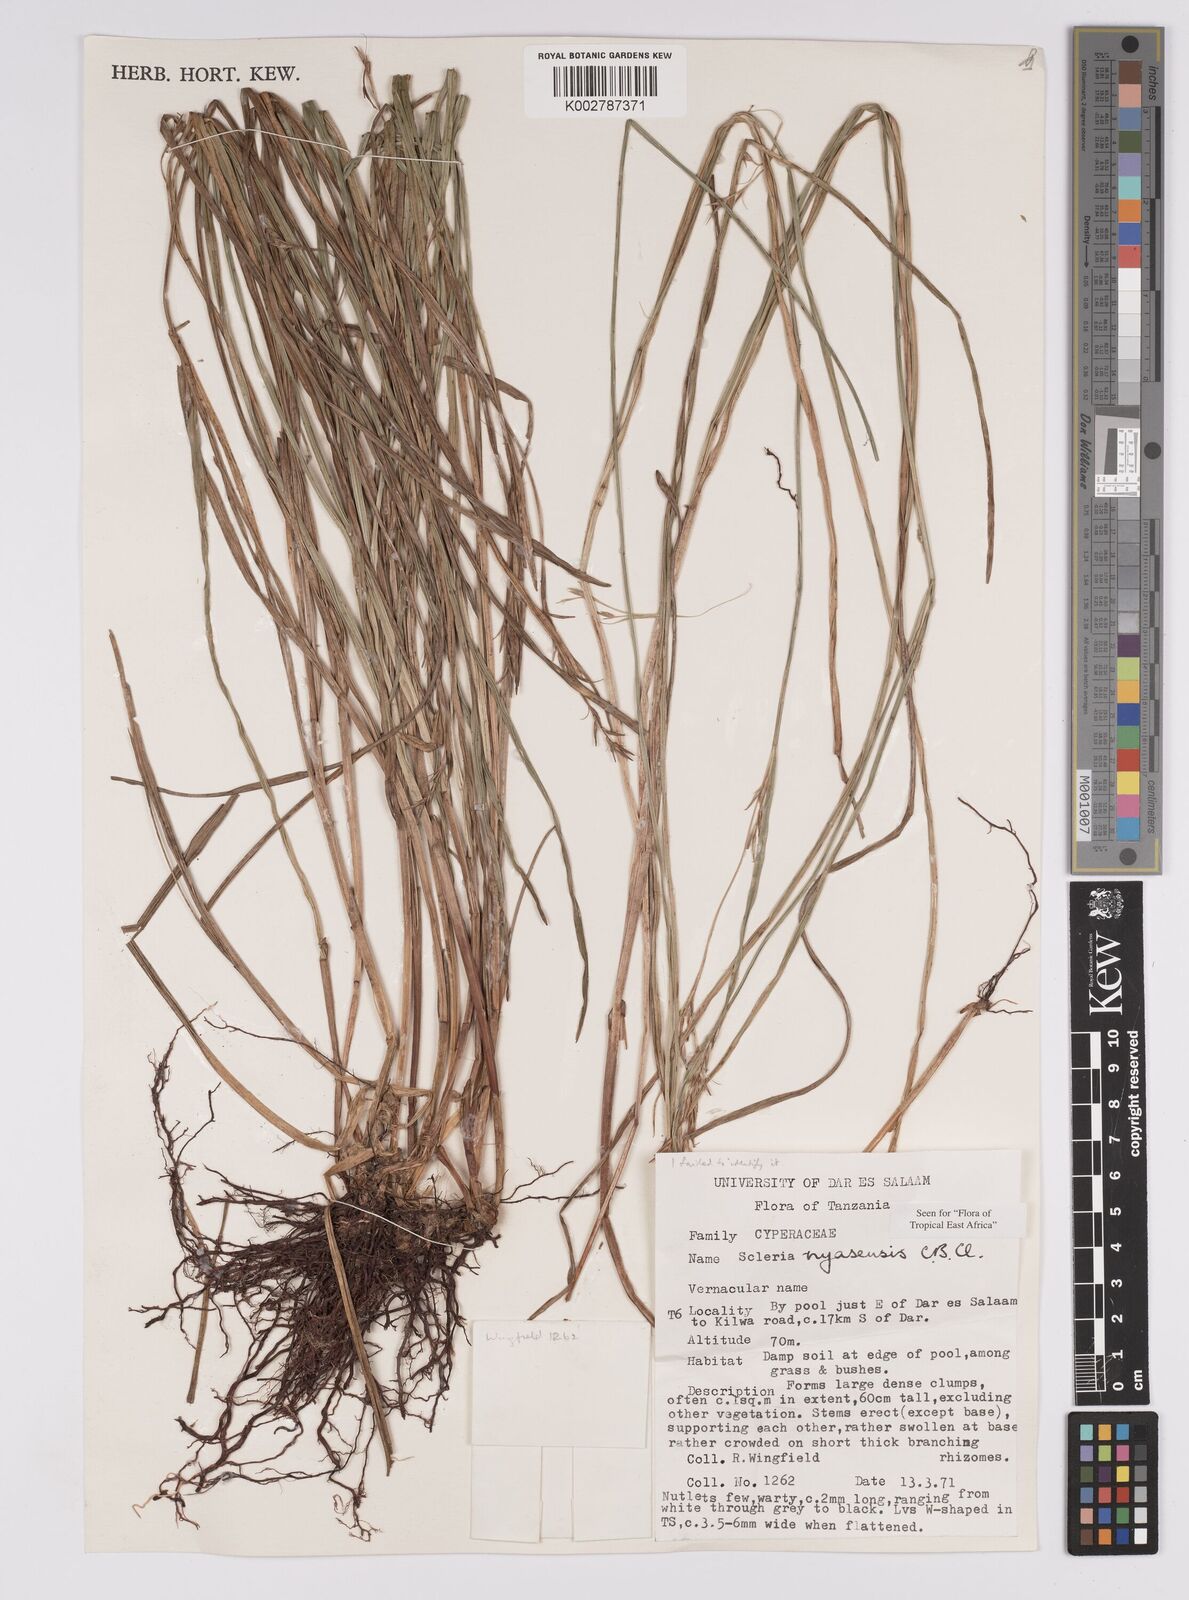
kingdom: Plantae
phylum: Tracheophyta
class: Liliopsida
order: Poales
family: Cyperaceae
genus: Scleria
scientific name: Scleria nyasensis
